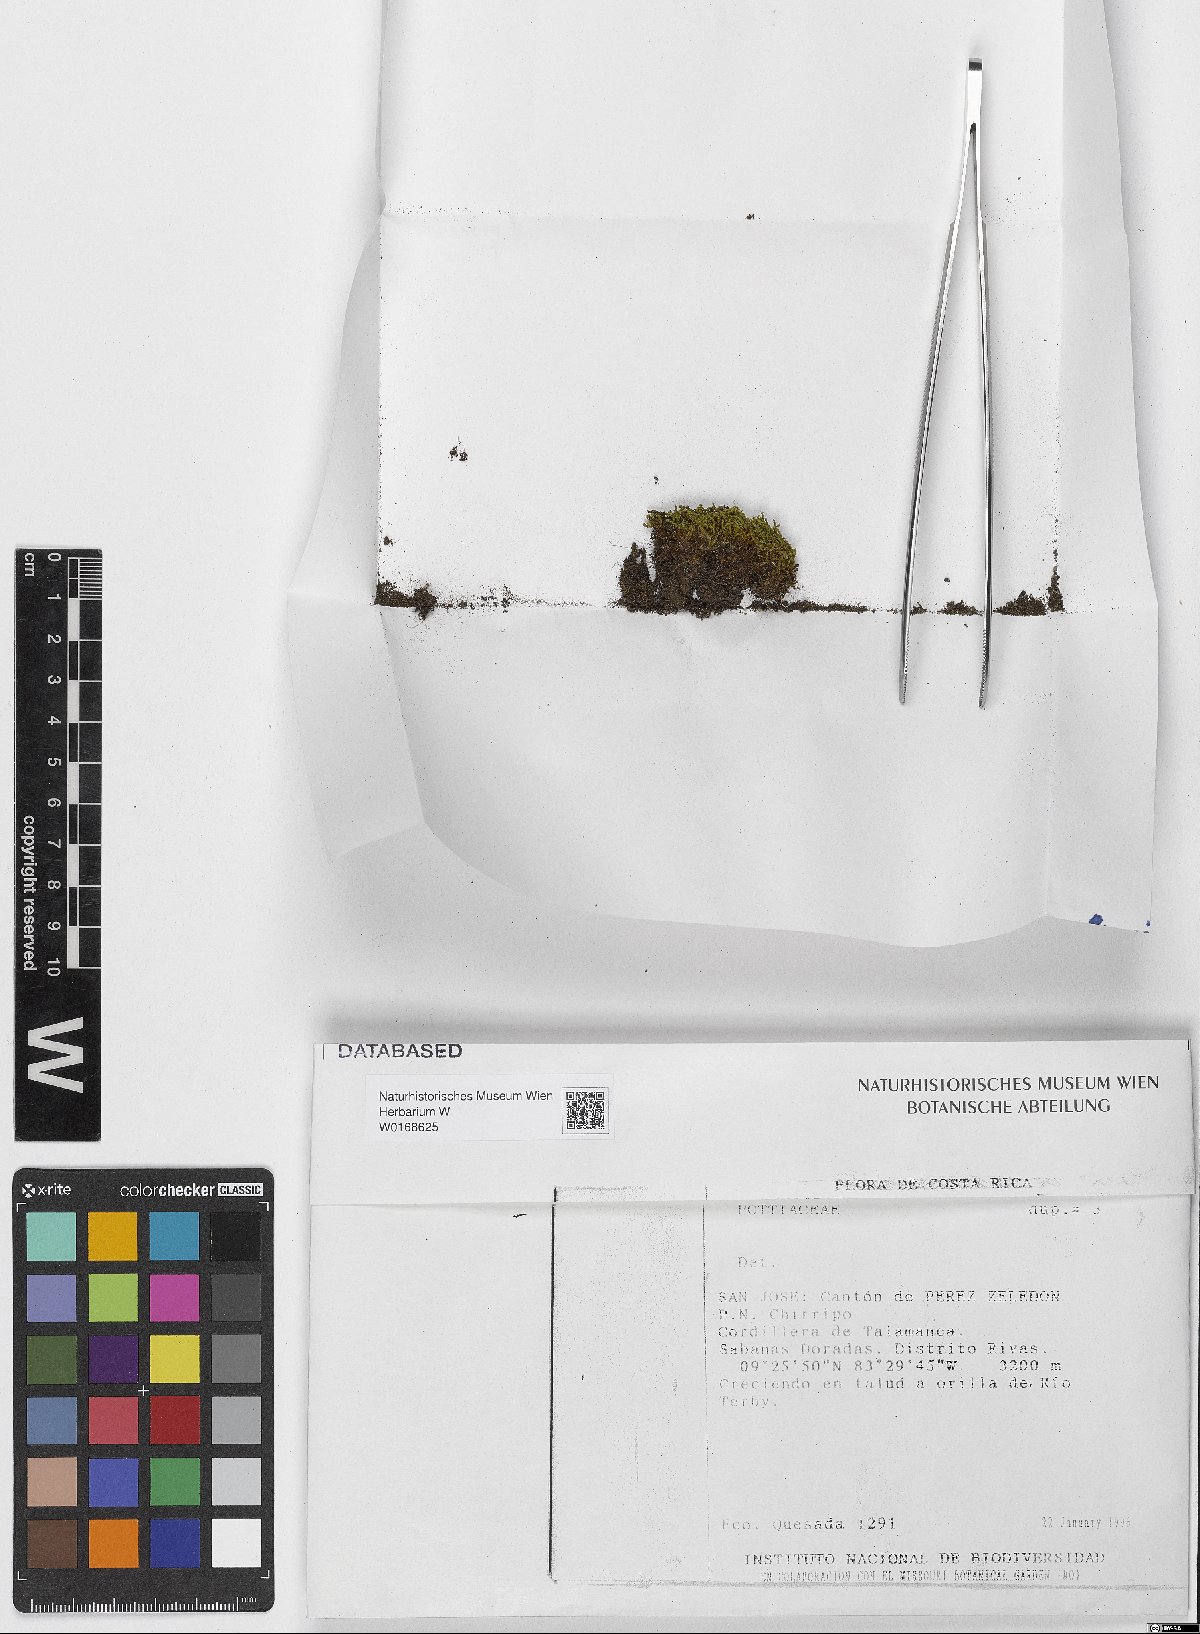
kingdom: Plantae
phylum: Bryophyta
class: Bryopsida
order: Pottiales
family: Pottiaceae
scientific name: Pottiaceae
